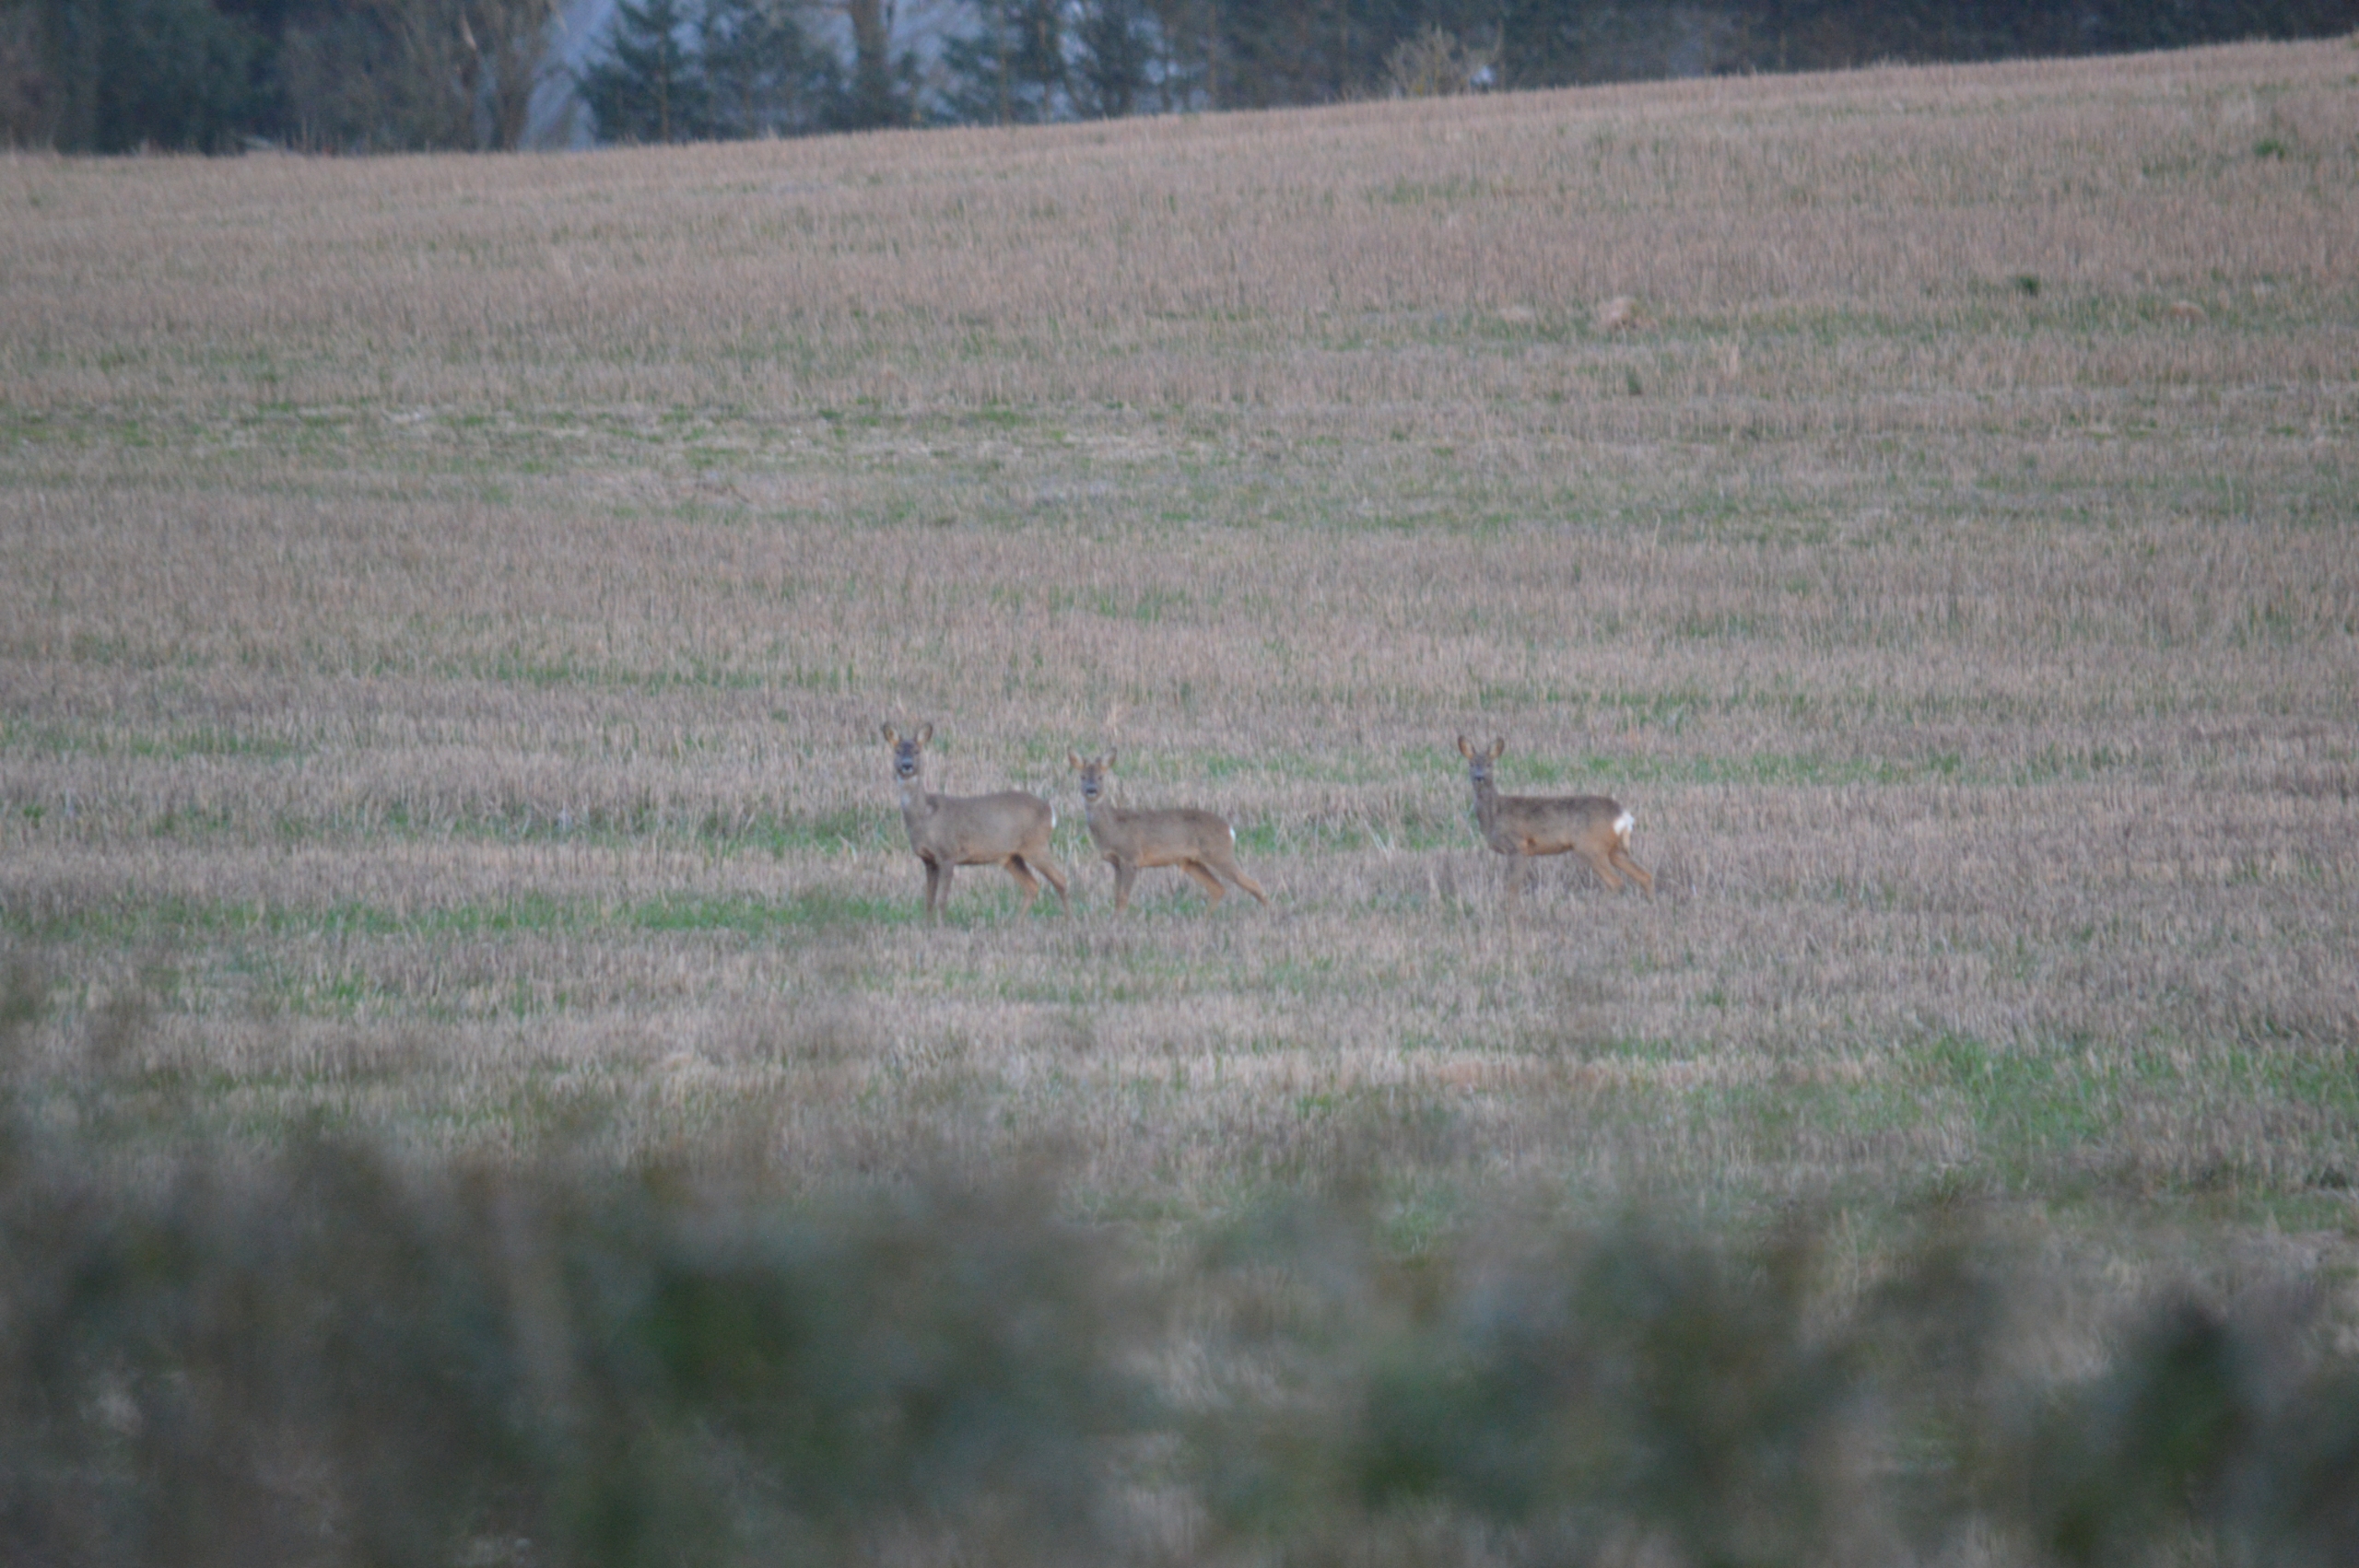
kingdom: Animalia
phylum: Chordata
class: Mammalia
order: Artiodactyla
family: Cervidae
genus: Capreolus
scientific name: Capreolus capreolus
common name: Rådyr
